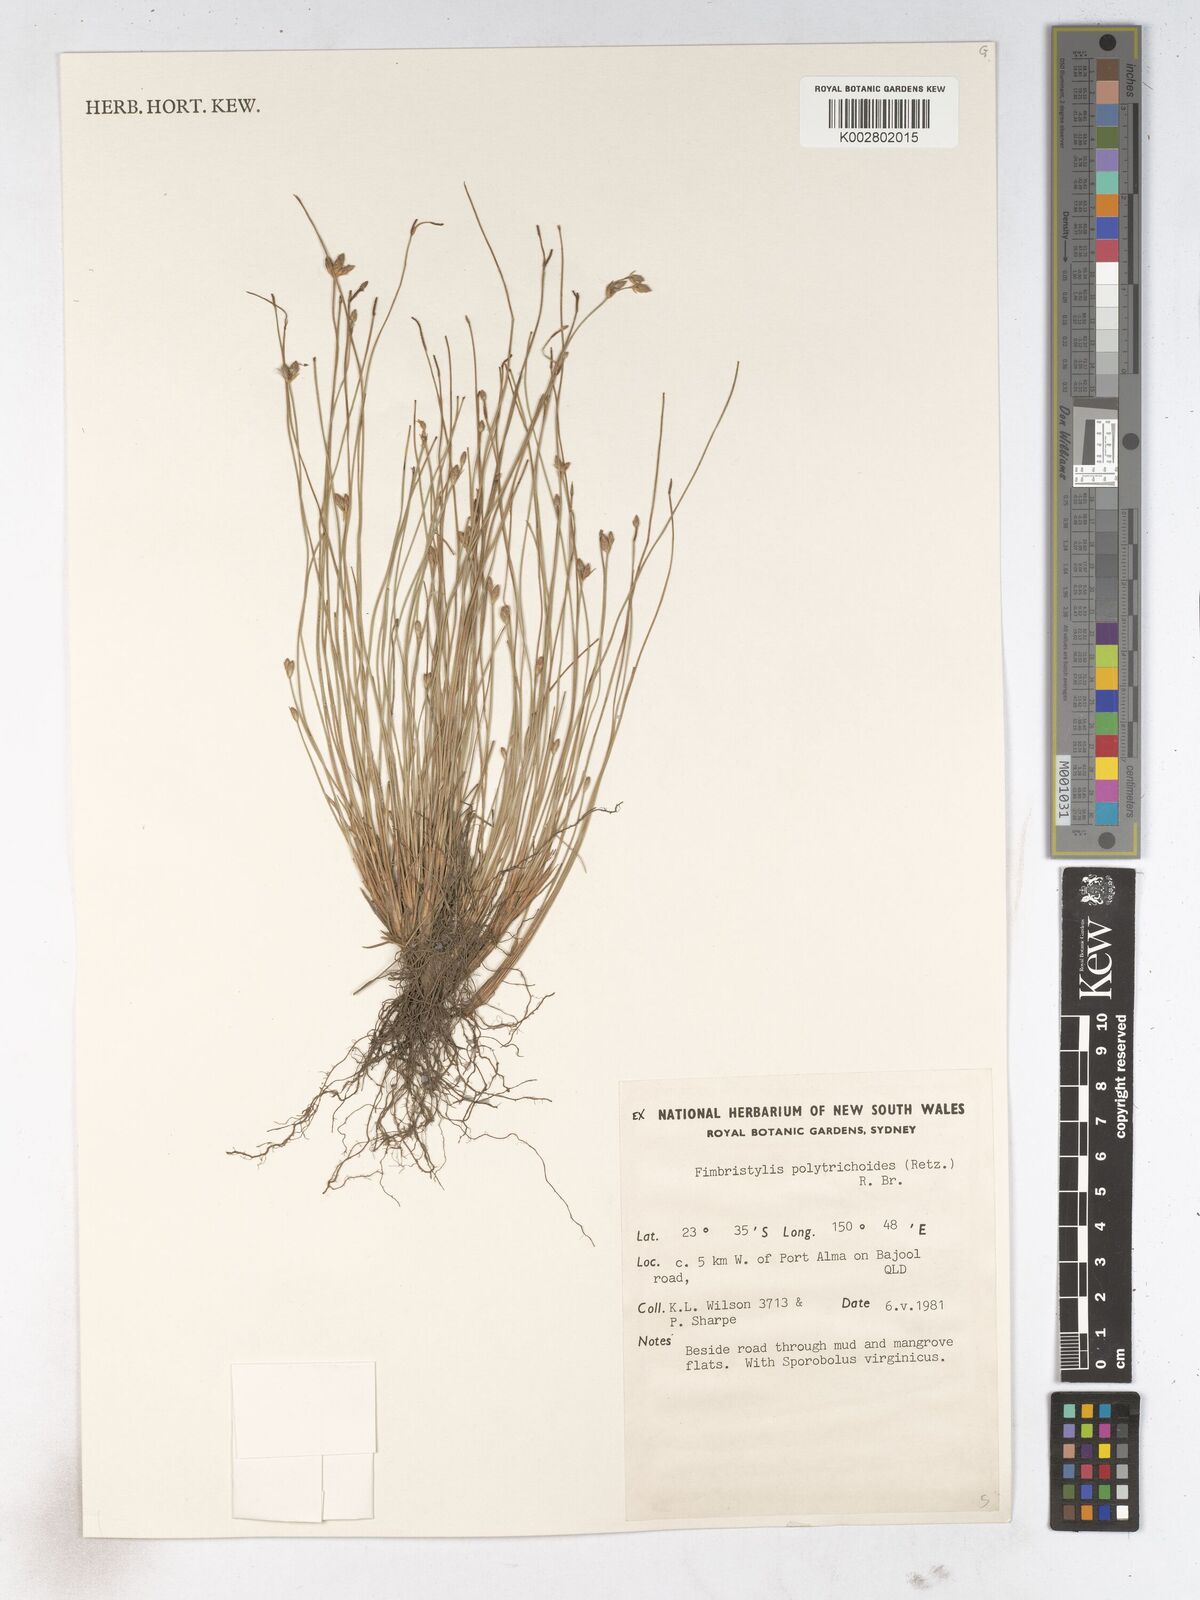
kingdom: Plantae
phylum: Tracheophyta
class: Liliopsida
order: Poales
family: Cyperaceae
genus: Fimbristylis
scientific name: Fimbristylis polytrichoides
